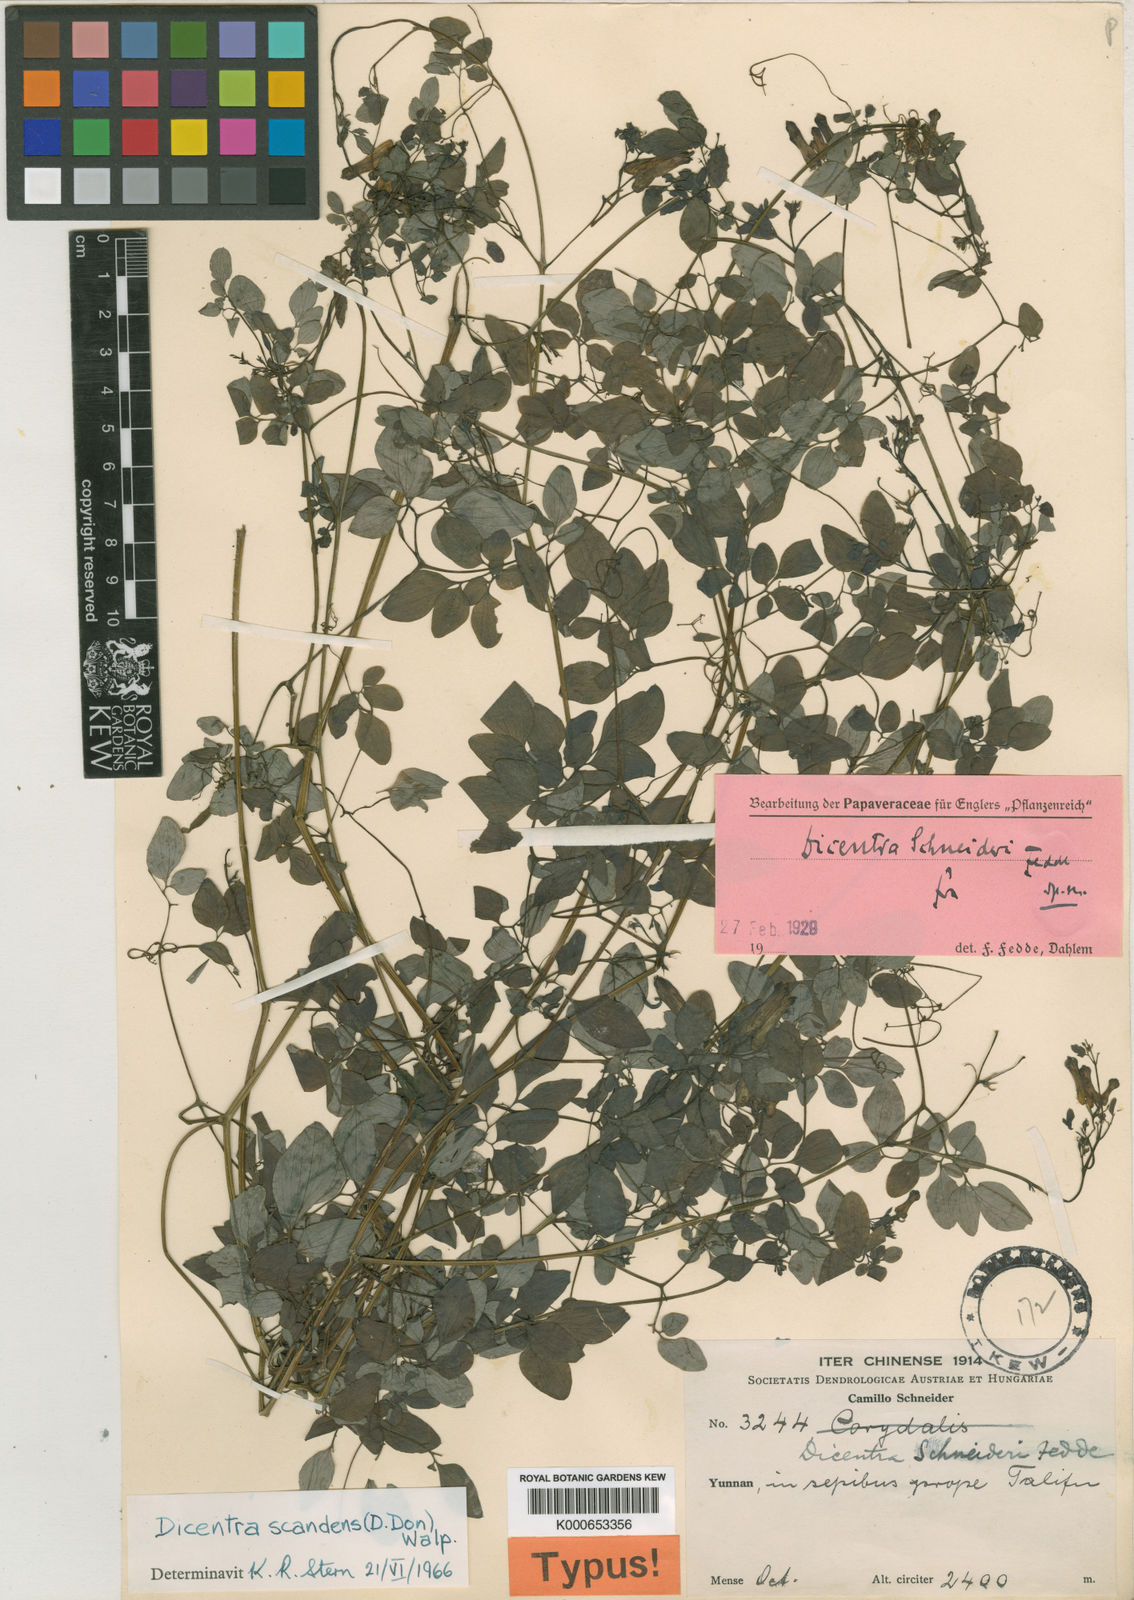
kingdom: Plantae
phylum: Tracheophyta
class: Magnoliopsida
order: Ranunculales
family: Papaveraceae
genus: Dactylicapnos
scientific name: Dactylicapnos scandens
